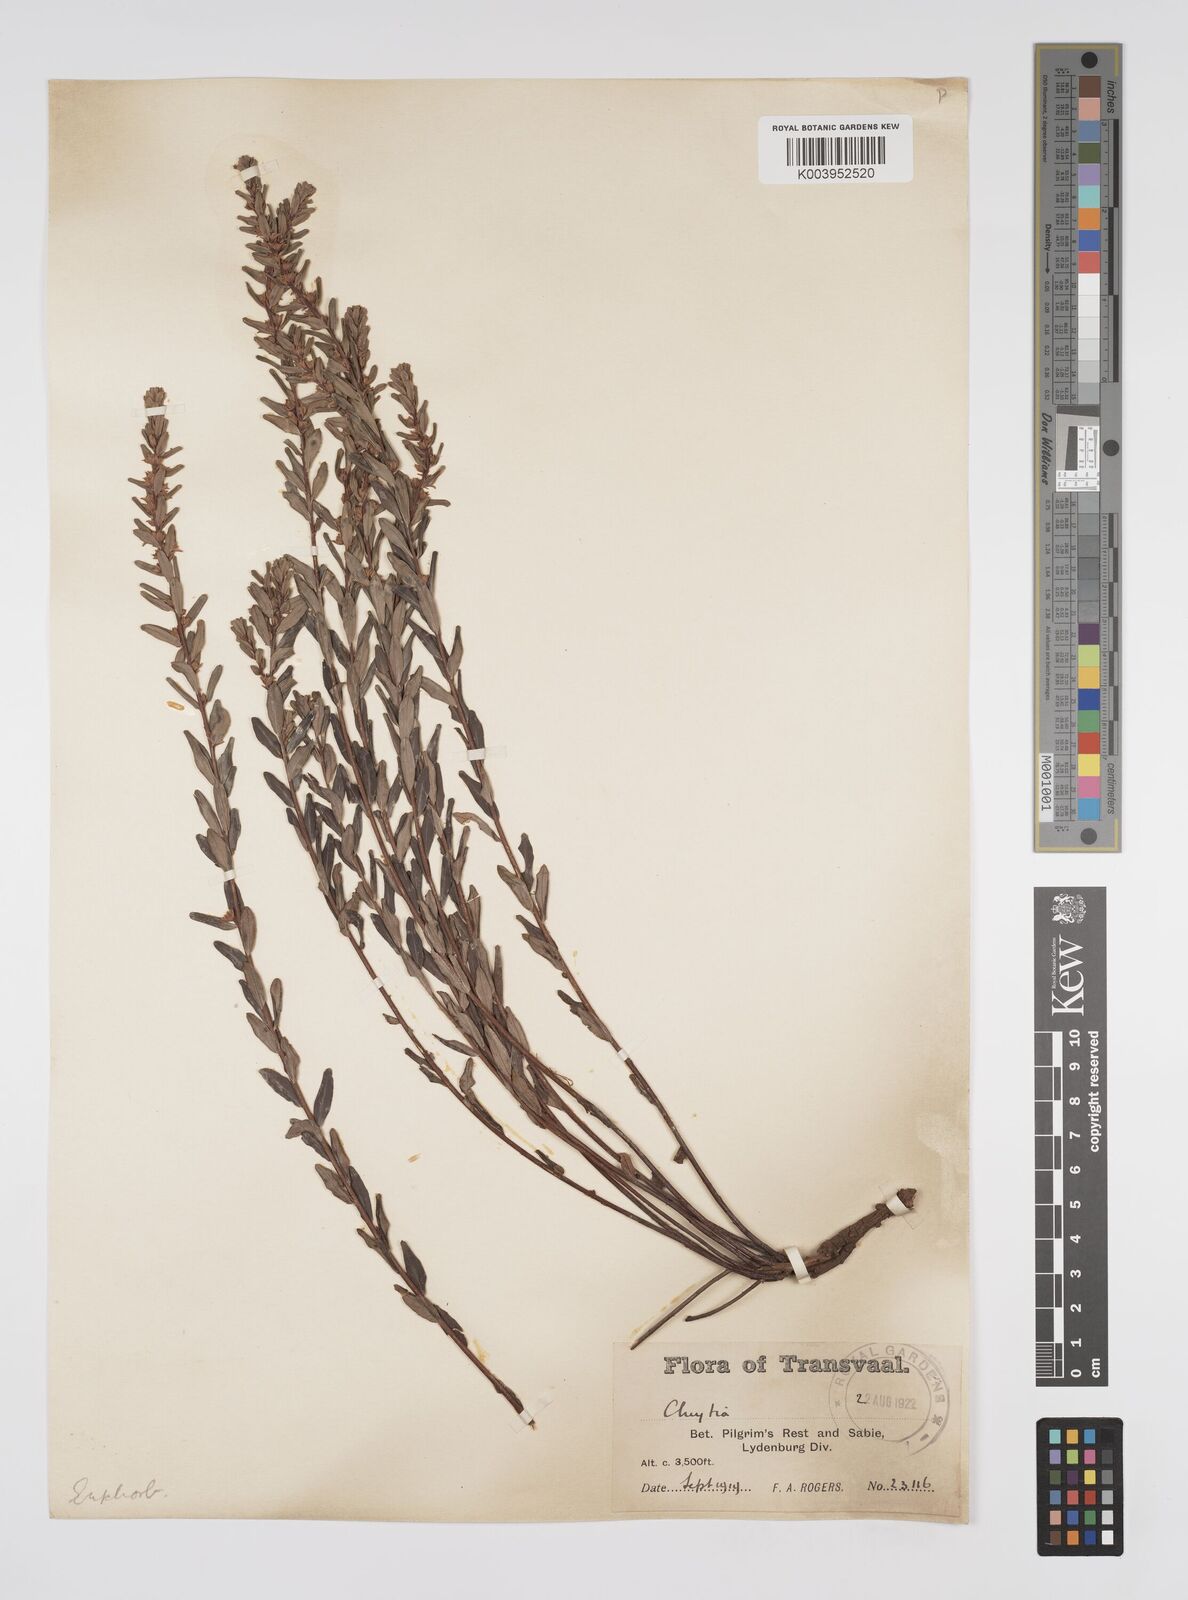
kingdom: Plantae
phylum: Tracheophyta
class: Magnoliopsida
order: Malpighiales
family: Peraceae
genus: Clutia
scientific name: Clutia
